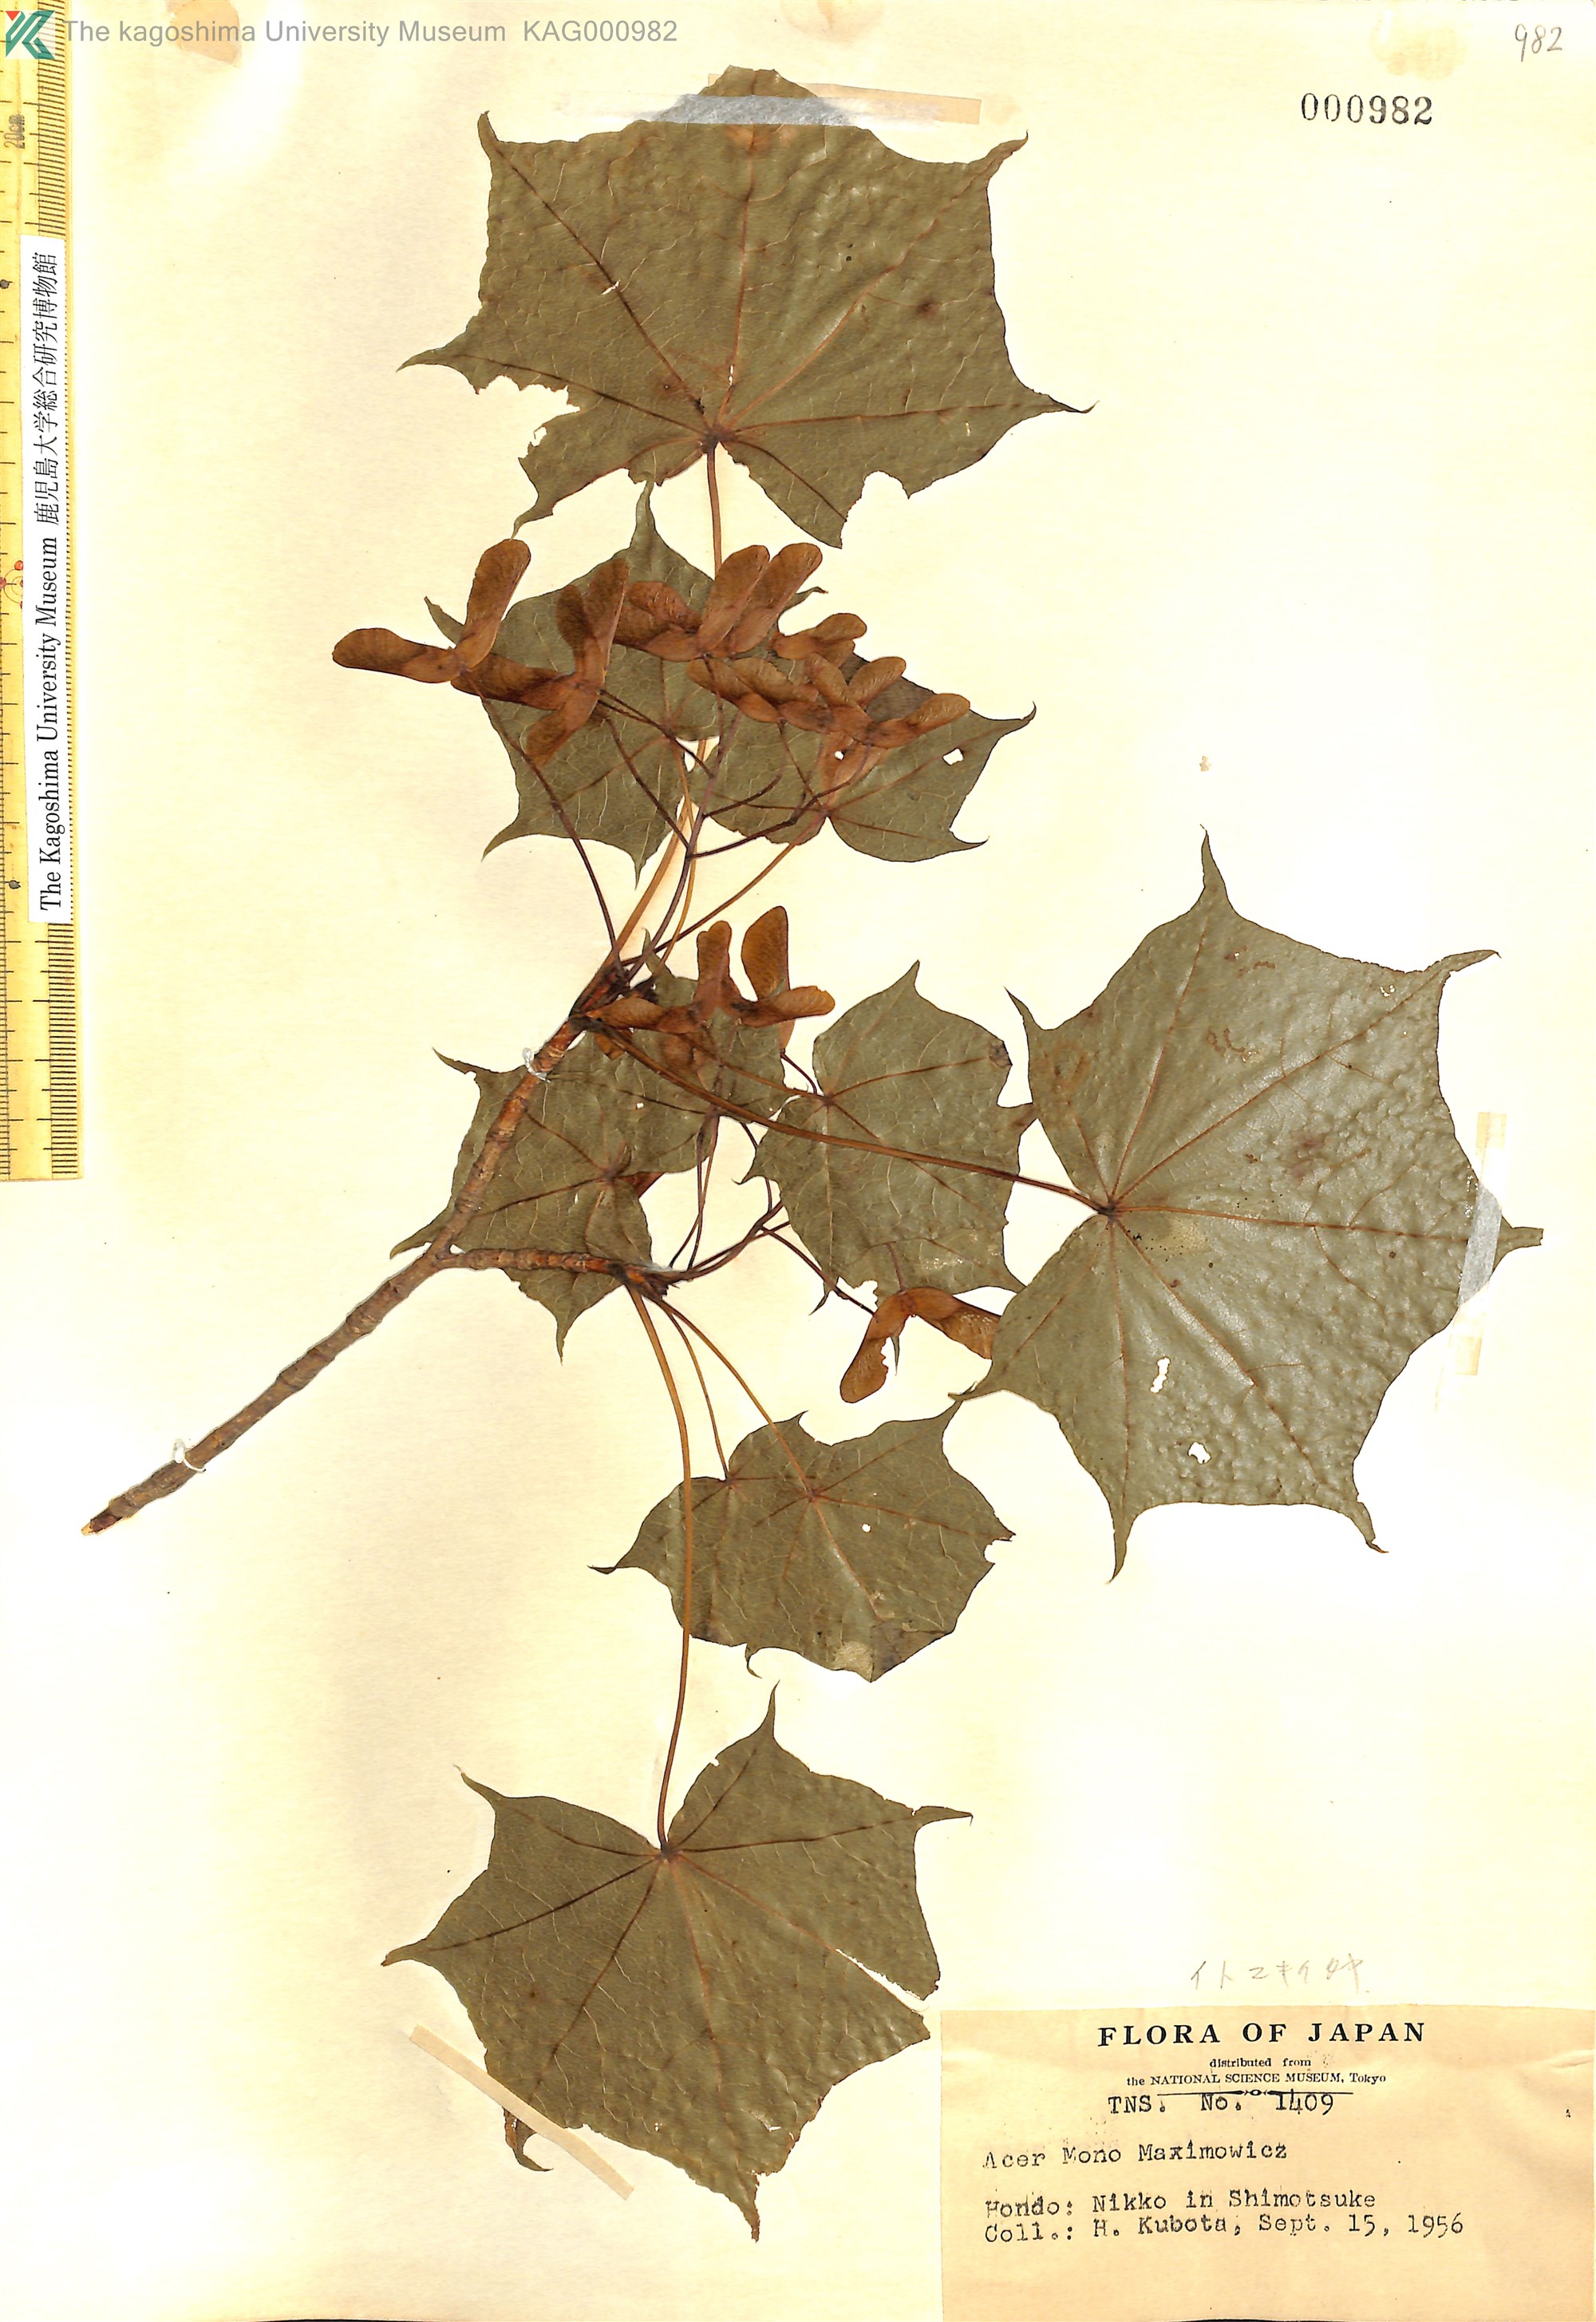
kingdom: Plantae
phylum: Tracheophyta
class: Magnoliopsida
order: Sapindales
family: Sapindaceae
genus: Acer
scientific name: Acer pictum
